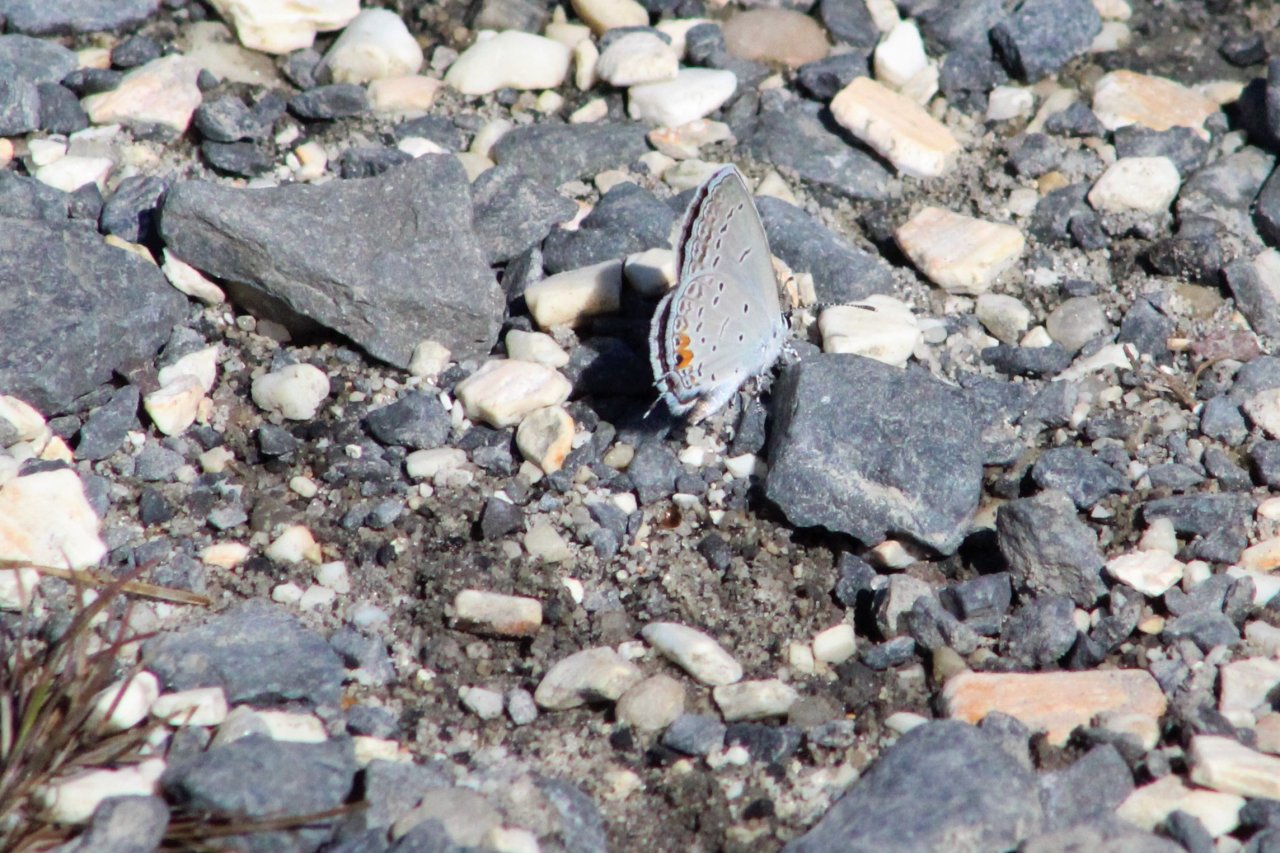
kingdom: Animalia
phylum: Arthropoda
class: Insecta
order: Lepidoptera
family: Lycaenidae
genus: Elkalyce
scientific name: Elkalyce comyntas
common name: Eastern Tailed-Blue
